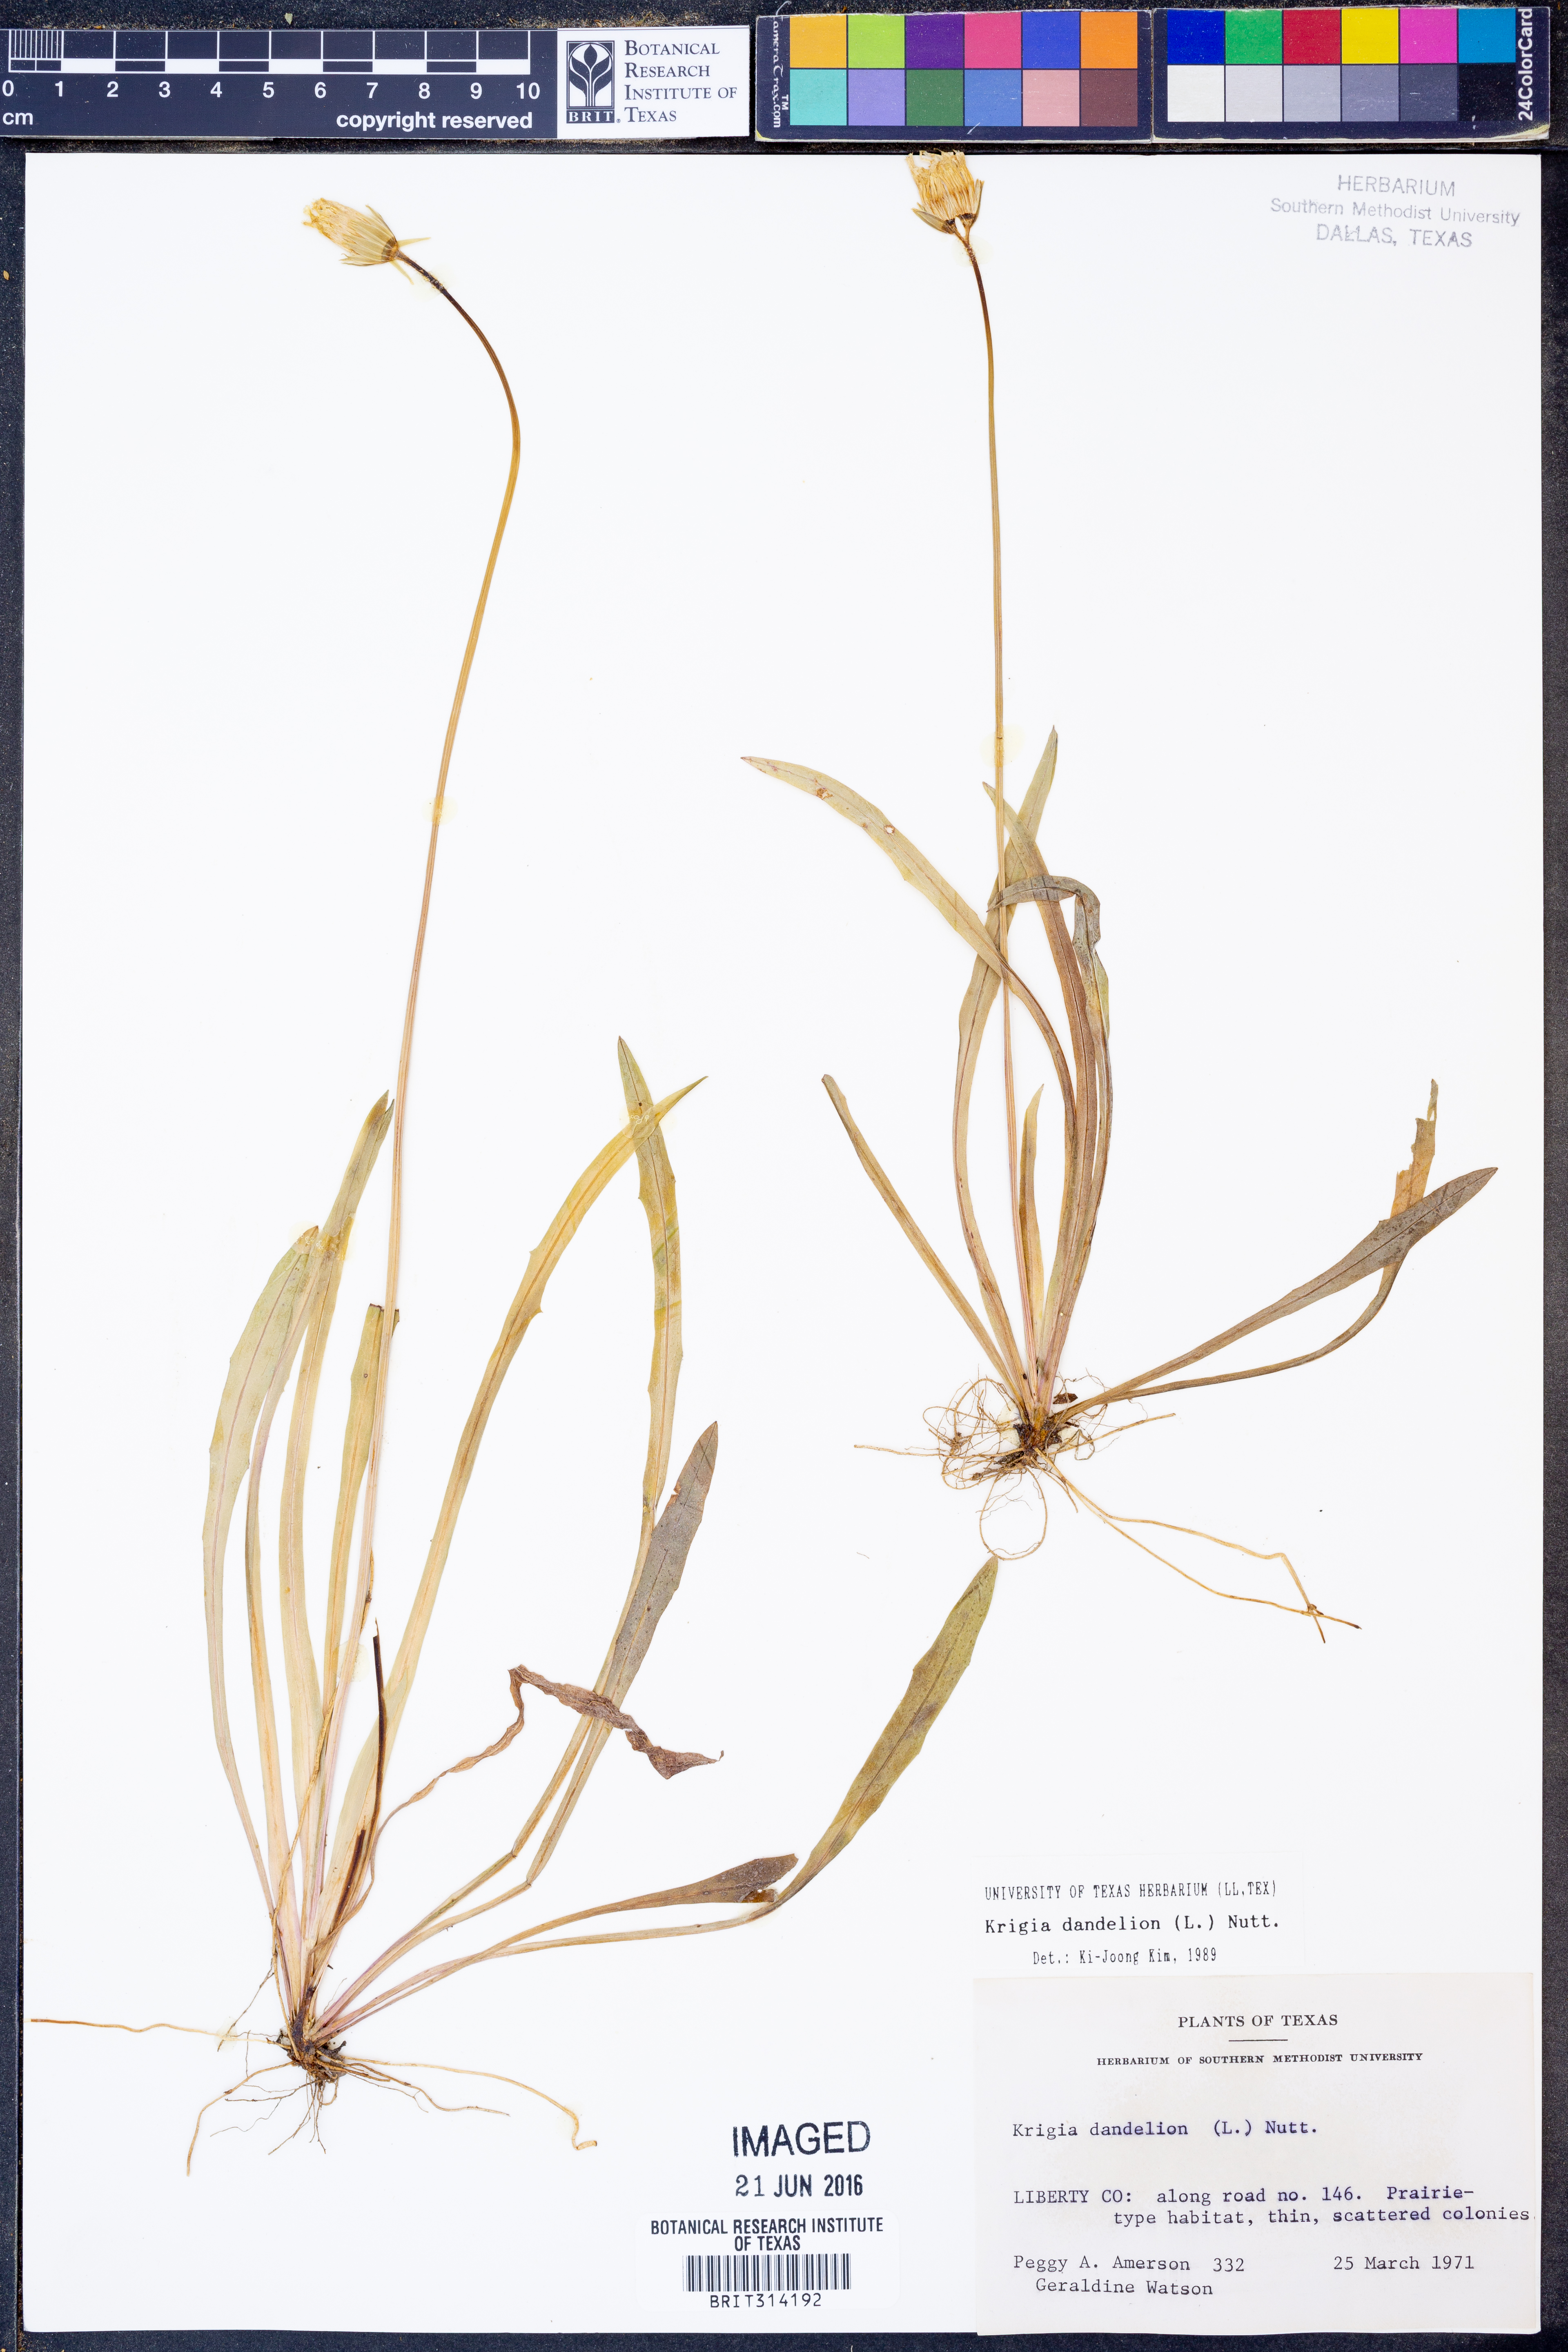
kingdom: Plantae
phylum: Tracheophyta
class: Magnoliopsida
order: Asterales
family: Asteraceae
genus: Krigia
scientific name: Krigia dandelion
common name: Colonial dwarf-dandelion
